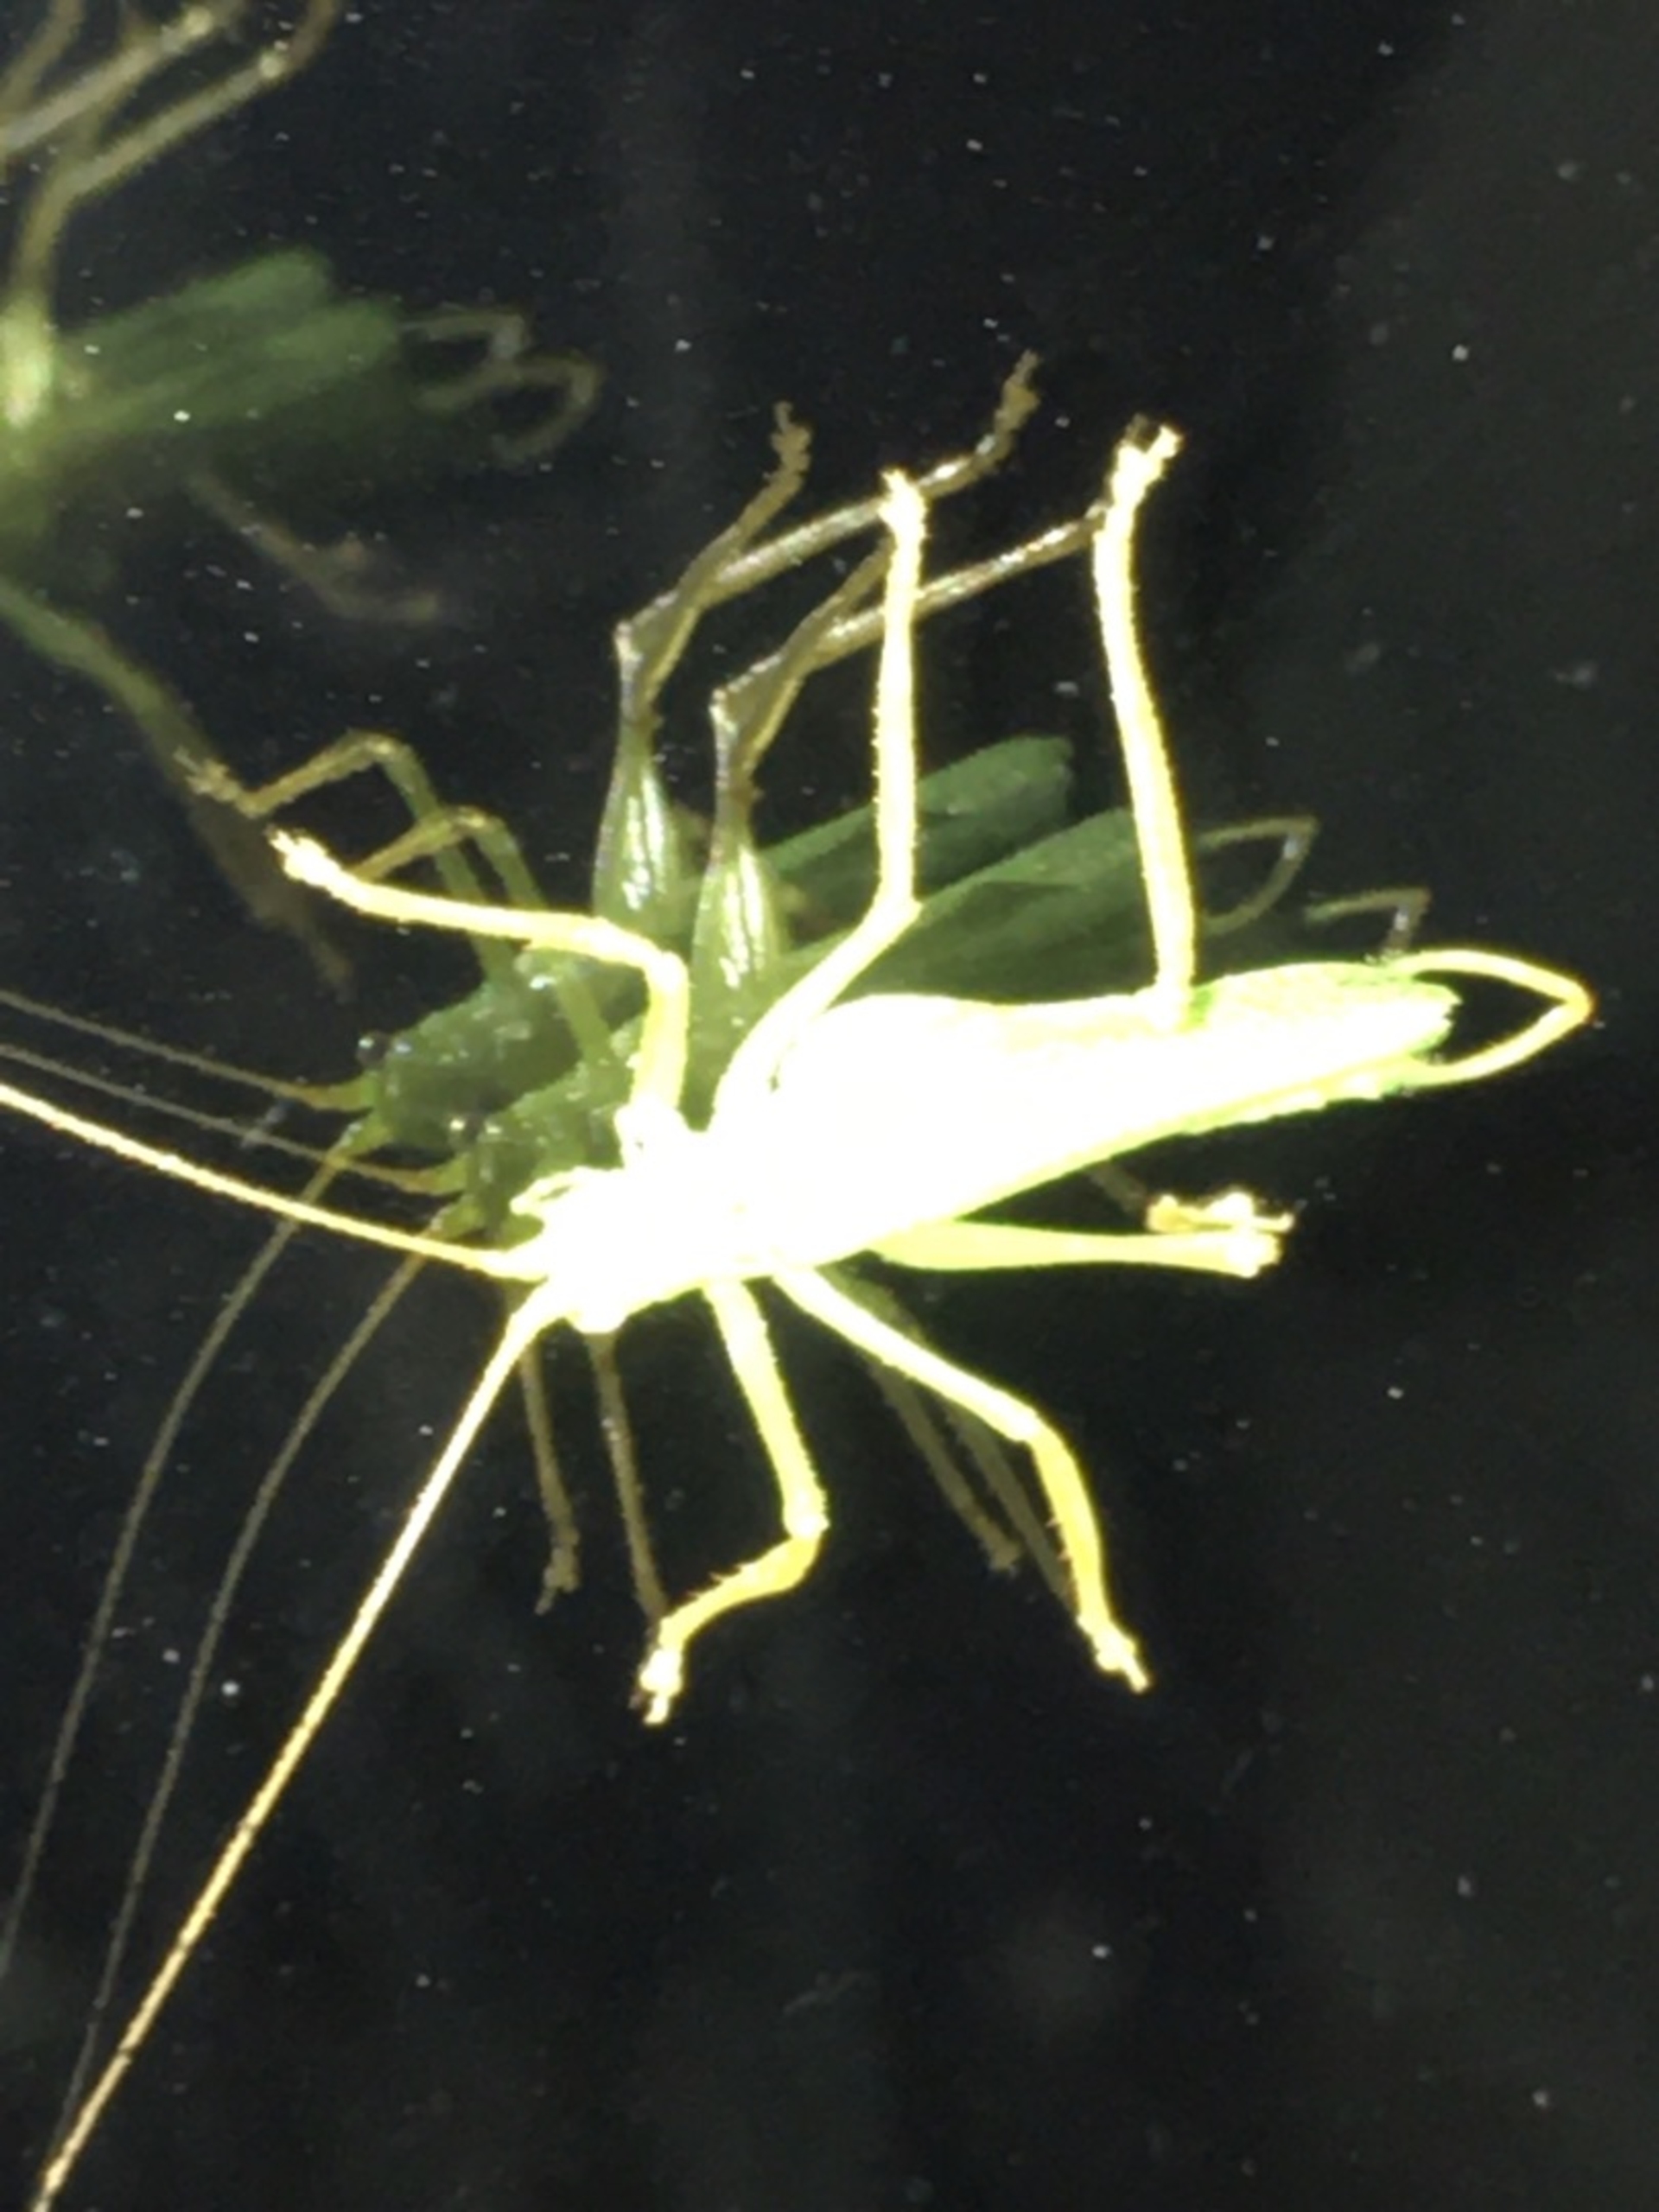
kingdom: Animalia
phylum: Arthropoda
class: Insecta
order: Orthoptera
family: Tettigoniidae
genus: Meconema
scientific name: Meconema thalassinum
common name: Egegræshoppe
